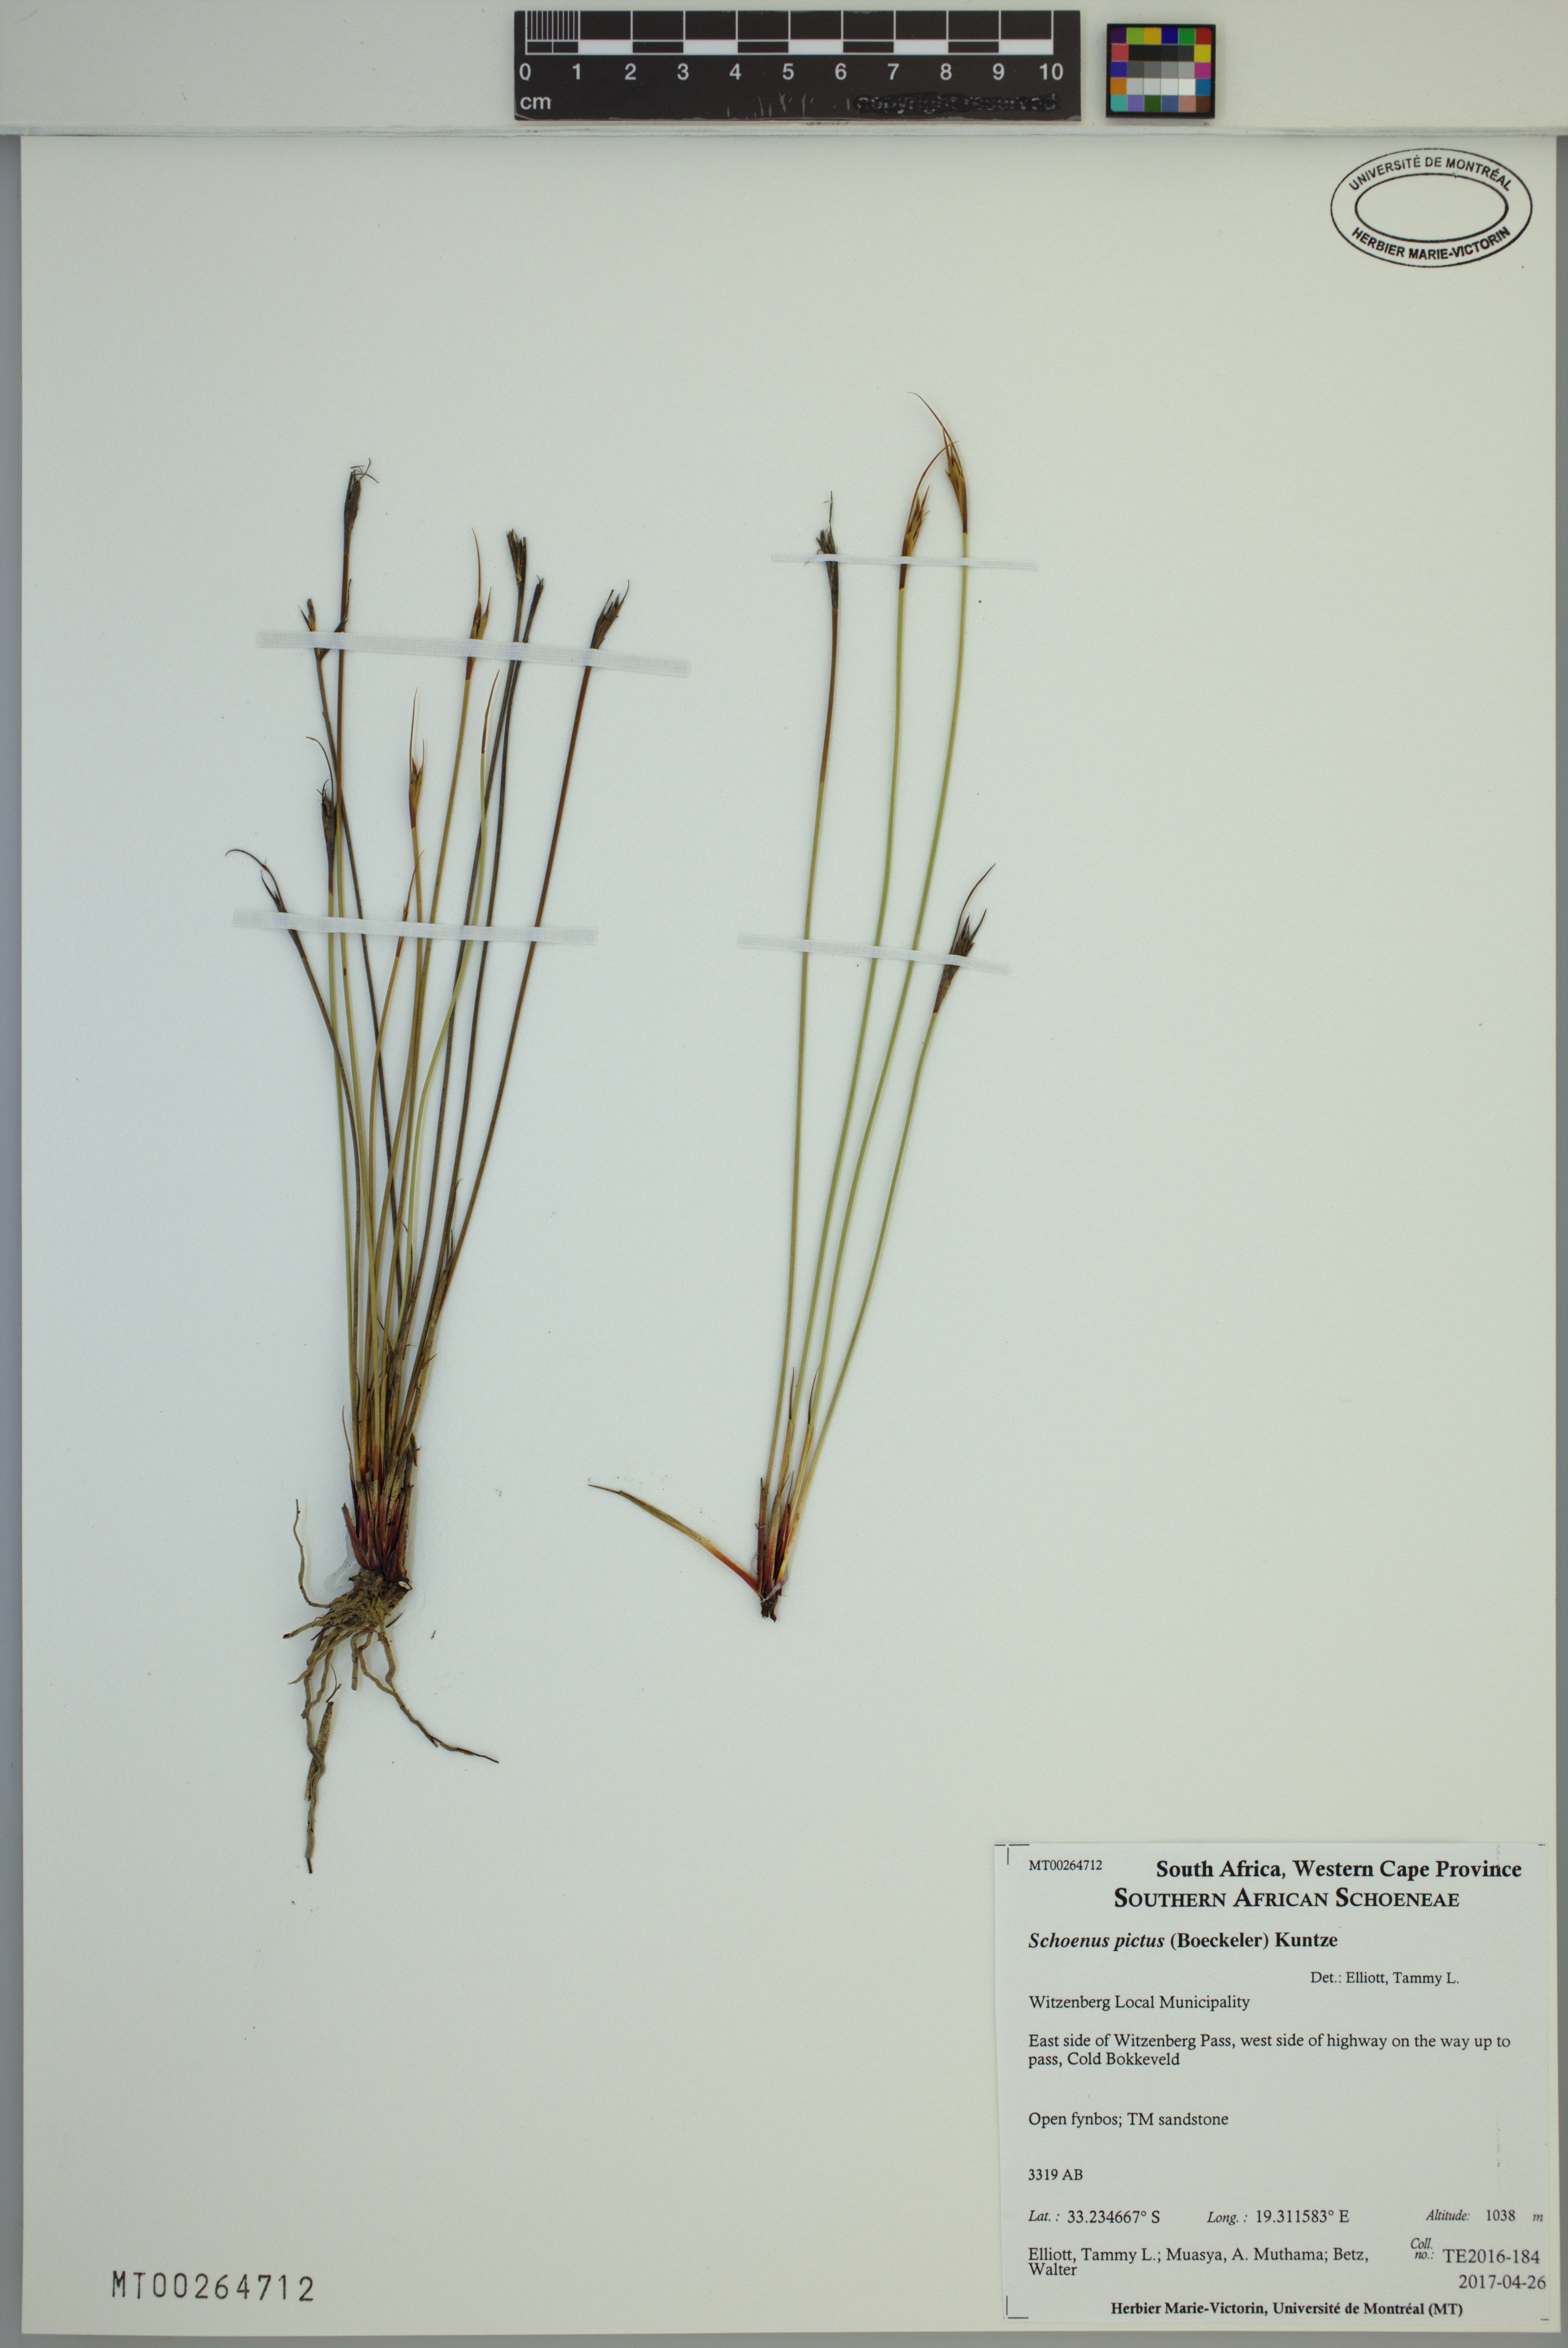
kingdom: Plantae
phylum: Tracheophyta
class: Liliopsida
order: Poales
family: Cyperaceae
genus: Schoenus
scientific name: Schoenus pictus
